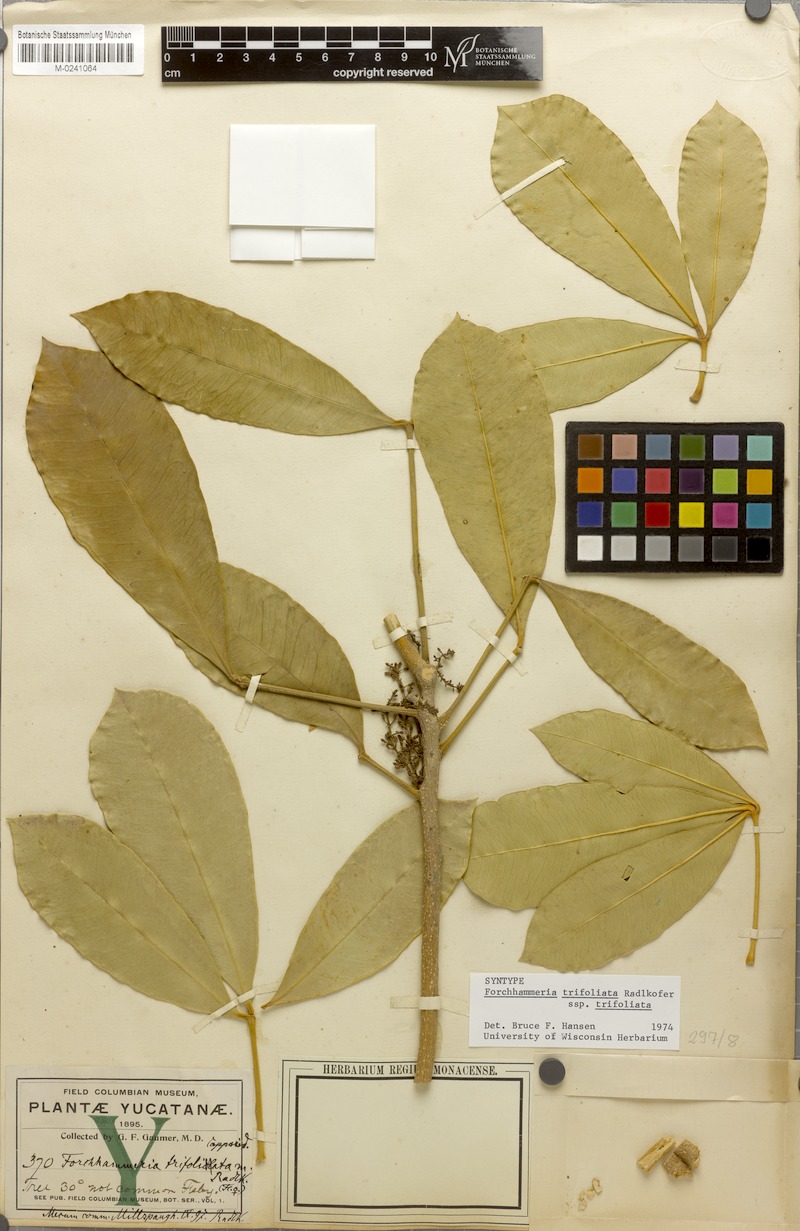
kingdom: Plantae
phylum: Tracheophyta
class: Magnoliopsida
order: Brassicales
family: Stixaceae
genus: Forchhammeria
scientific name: Forchhammeria trifoliata
